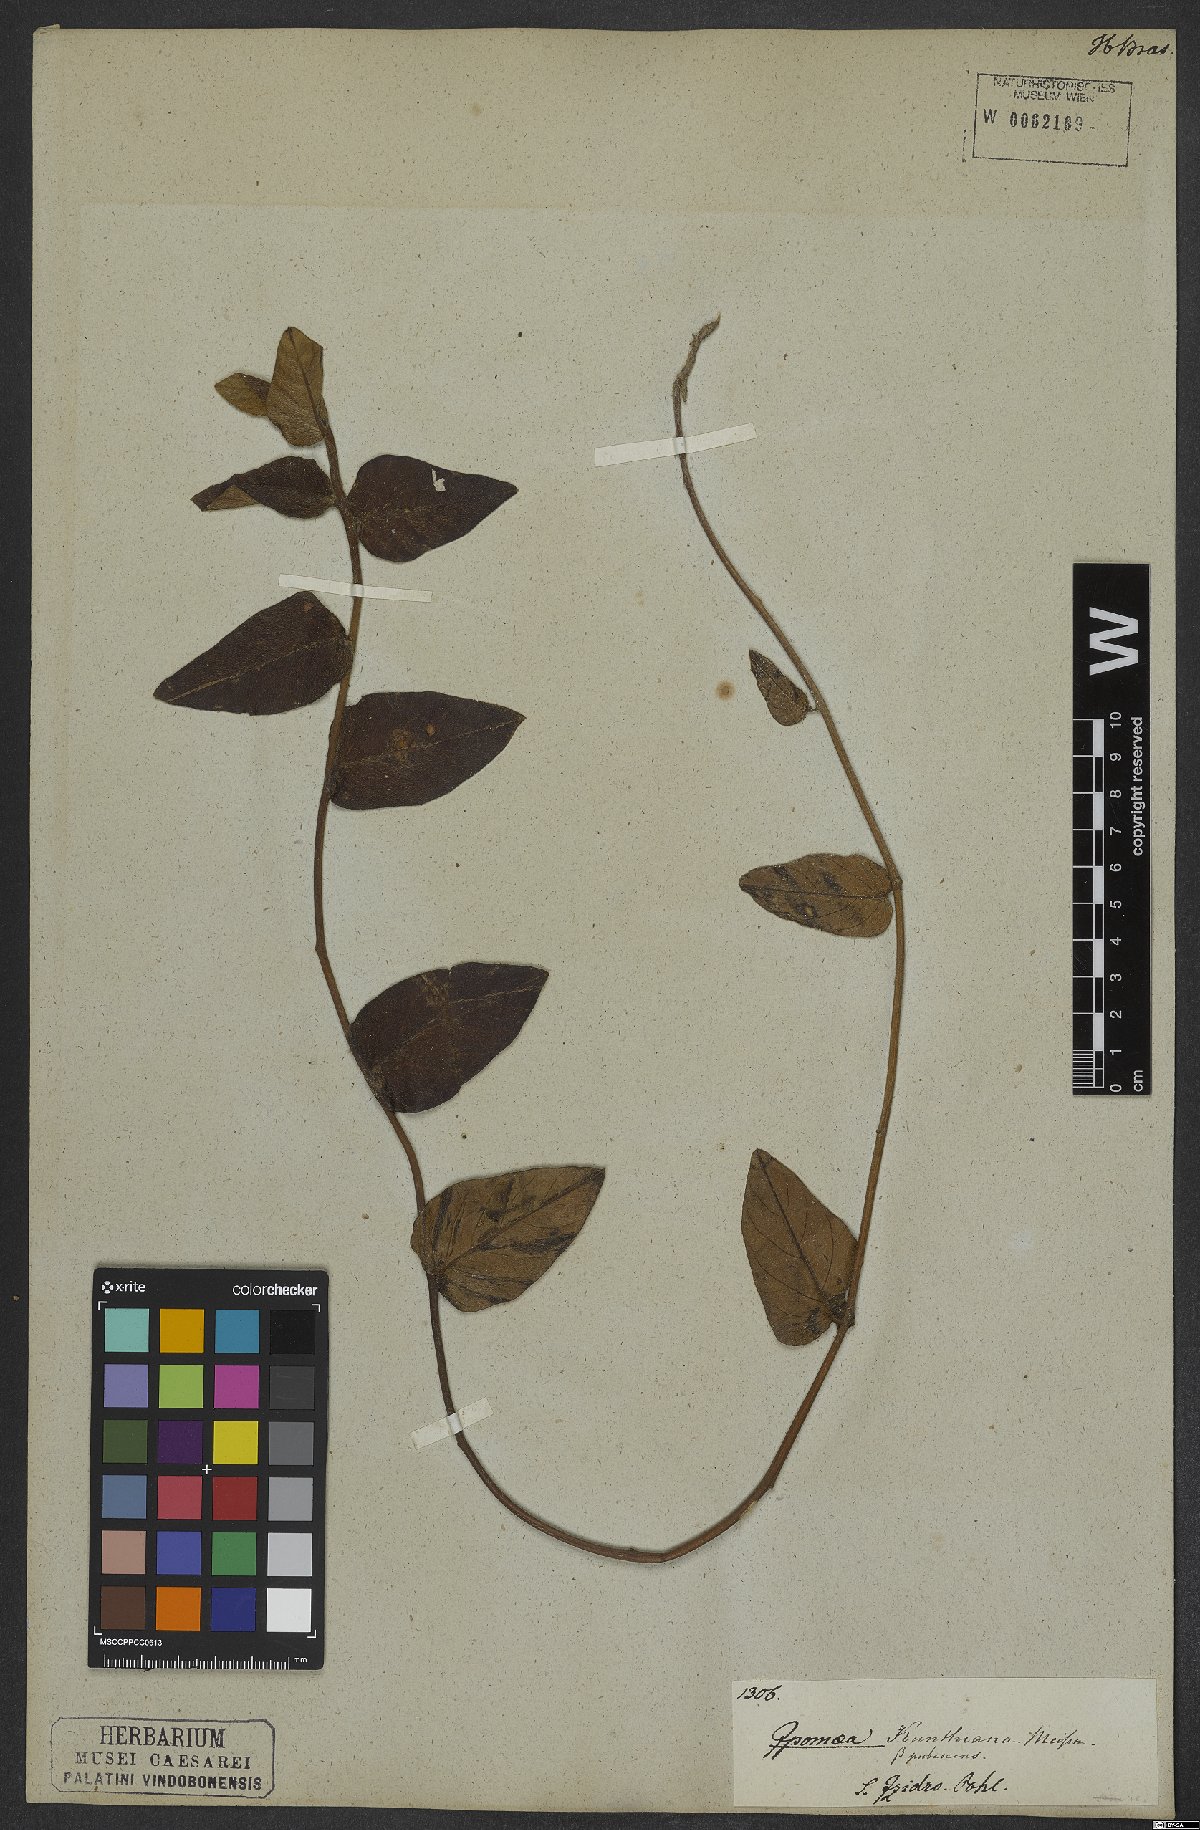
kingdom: Plantae
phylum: Tracheophyta
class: Magnoliopsida
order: Solanales
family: Convolvulaceae
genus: Ipomoea
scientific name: Ipomoea procumbens
